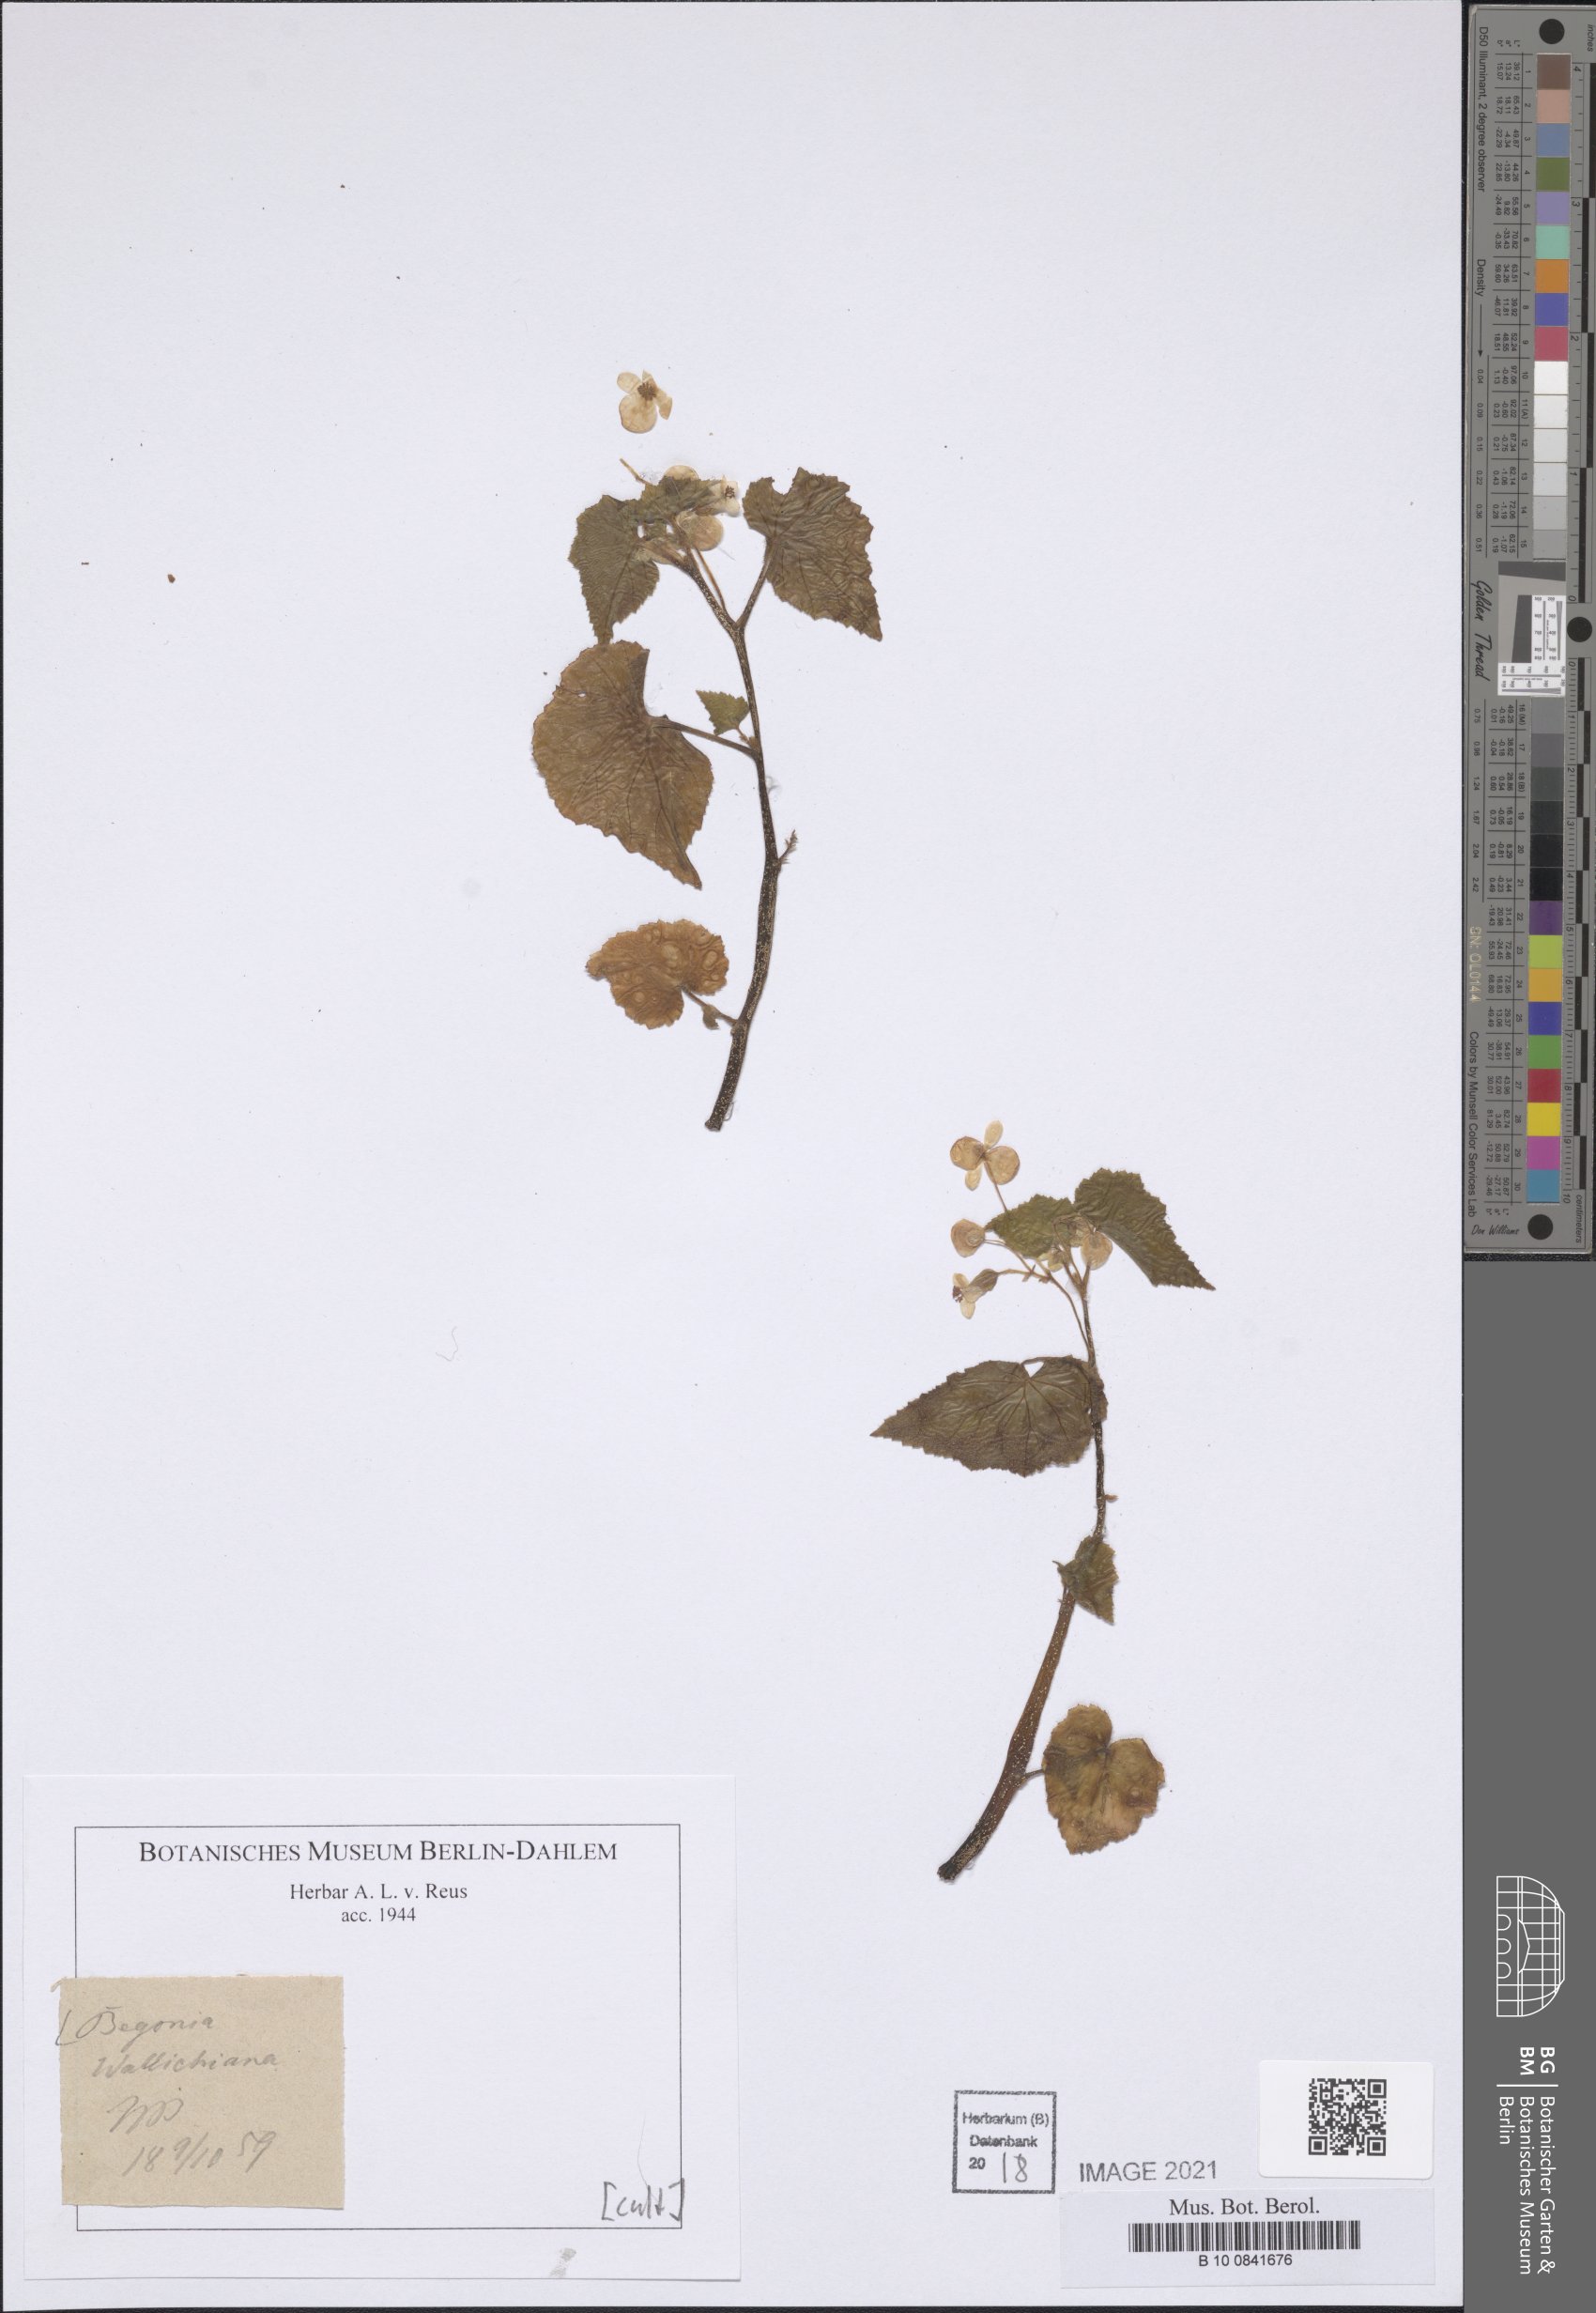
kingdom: Plantae
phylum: Tracheophyta
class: Magnoliopsida
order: Cucurbitales
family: Begoniaceae
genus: Begonia
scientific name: Begonia wallichiana
